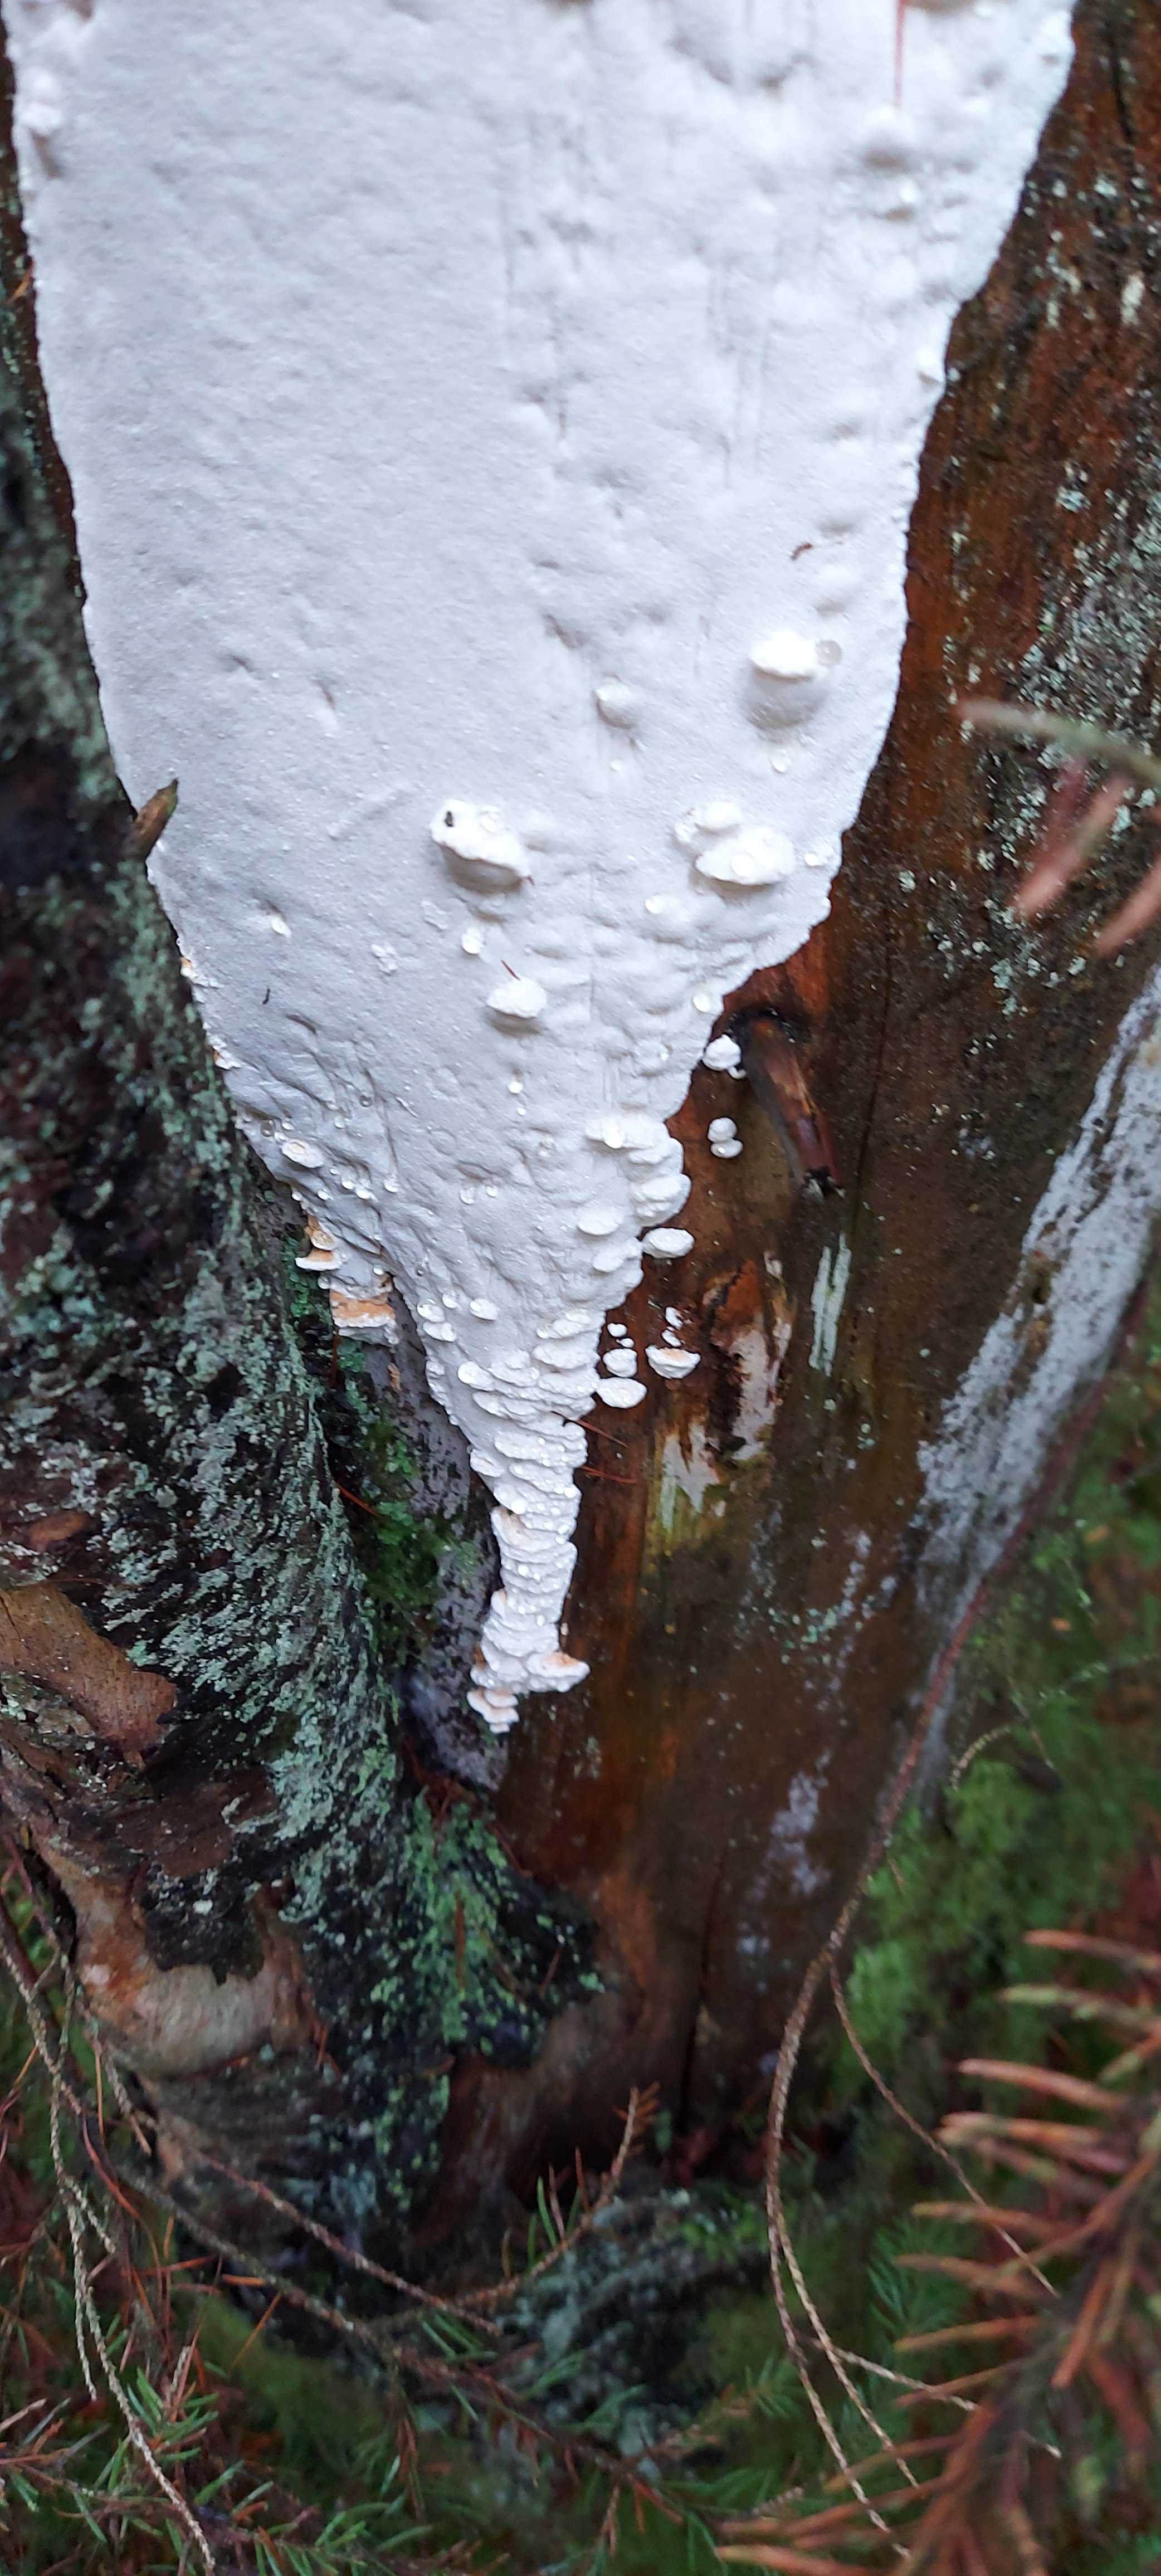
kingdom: Fungi
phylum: Basidiomycota
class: Agaricomycetes
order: Polyporales
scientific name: Polyporales
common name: poresvampordenen
